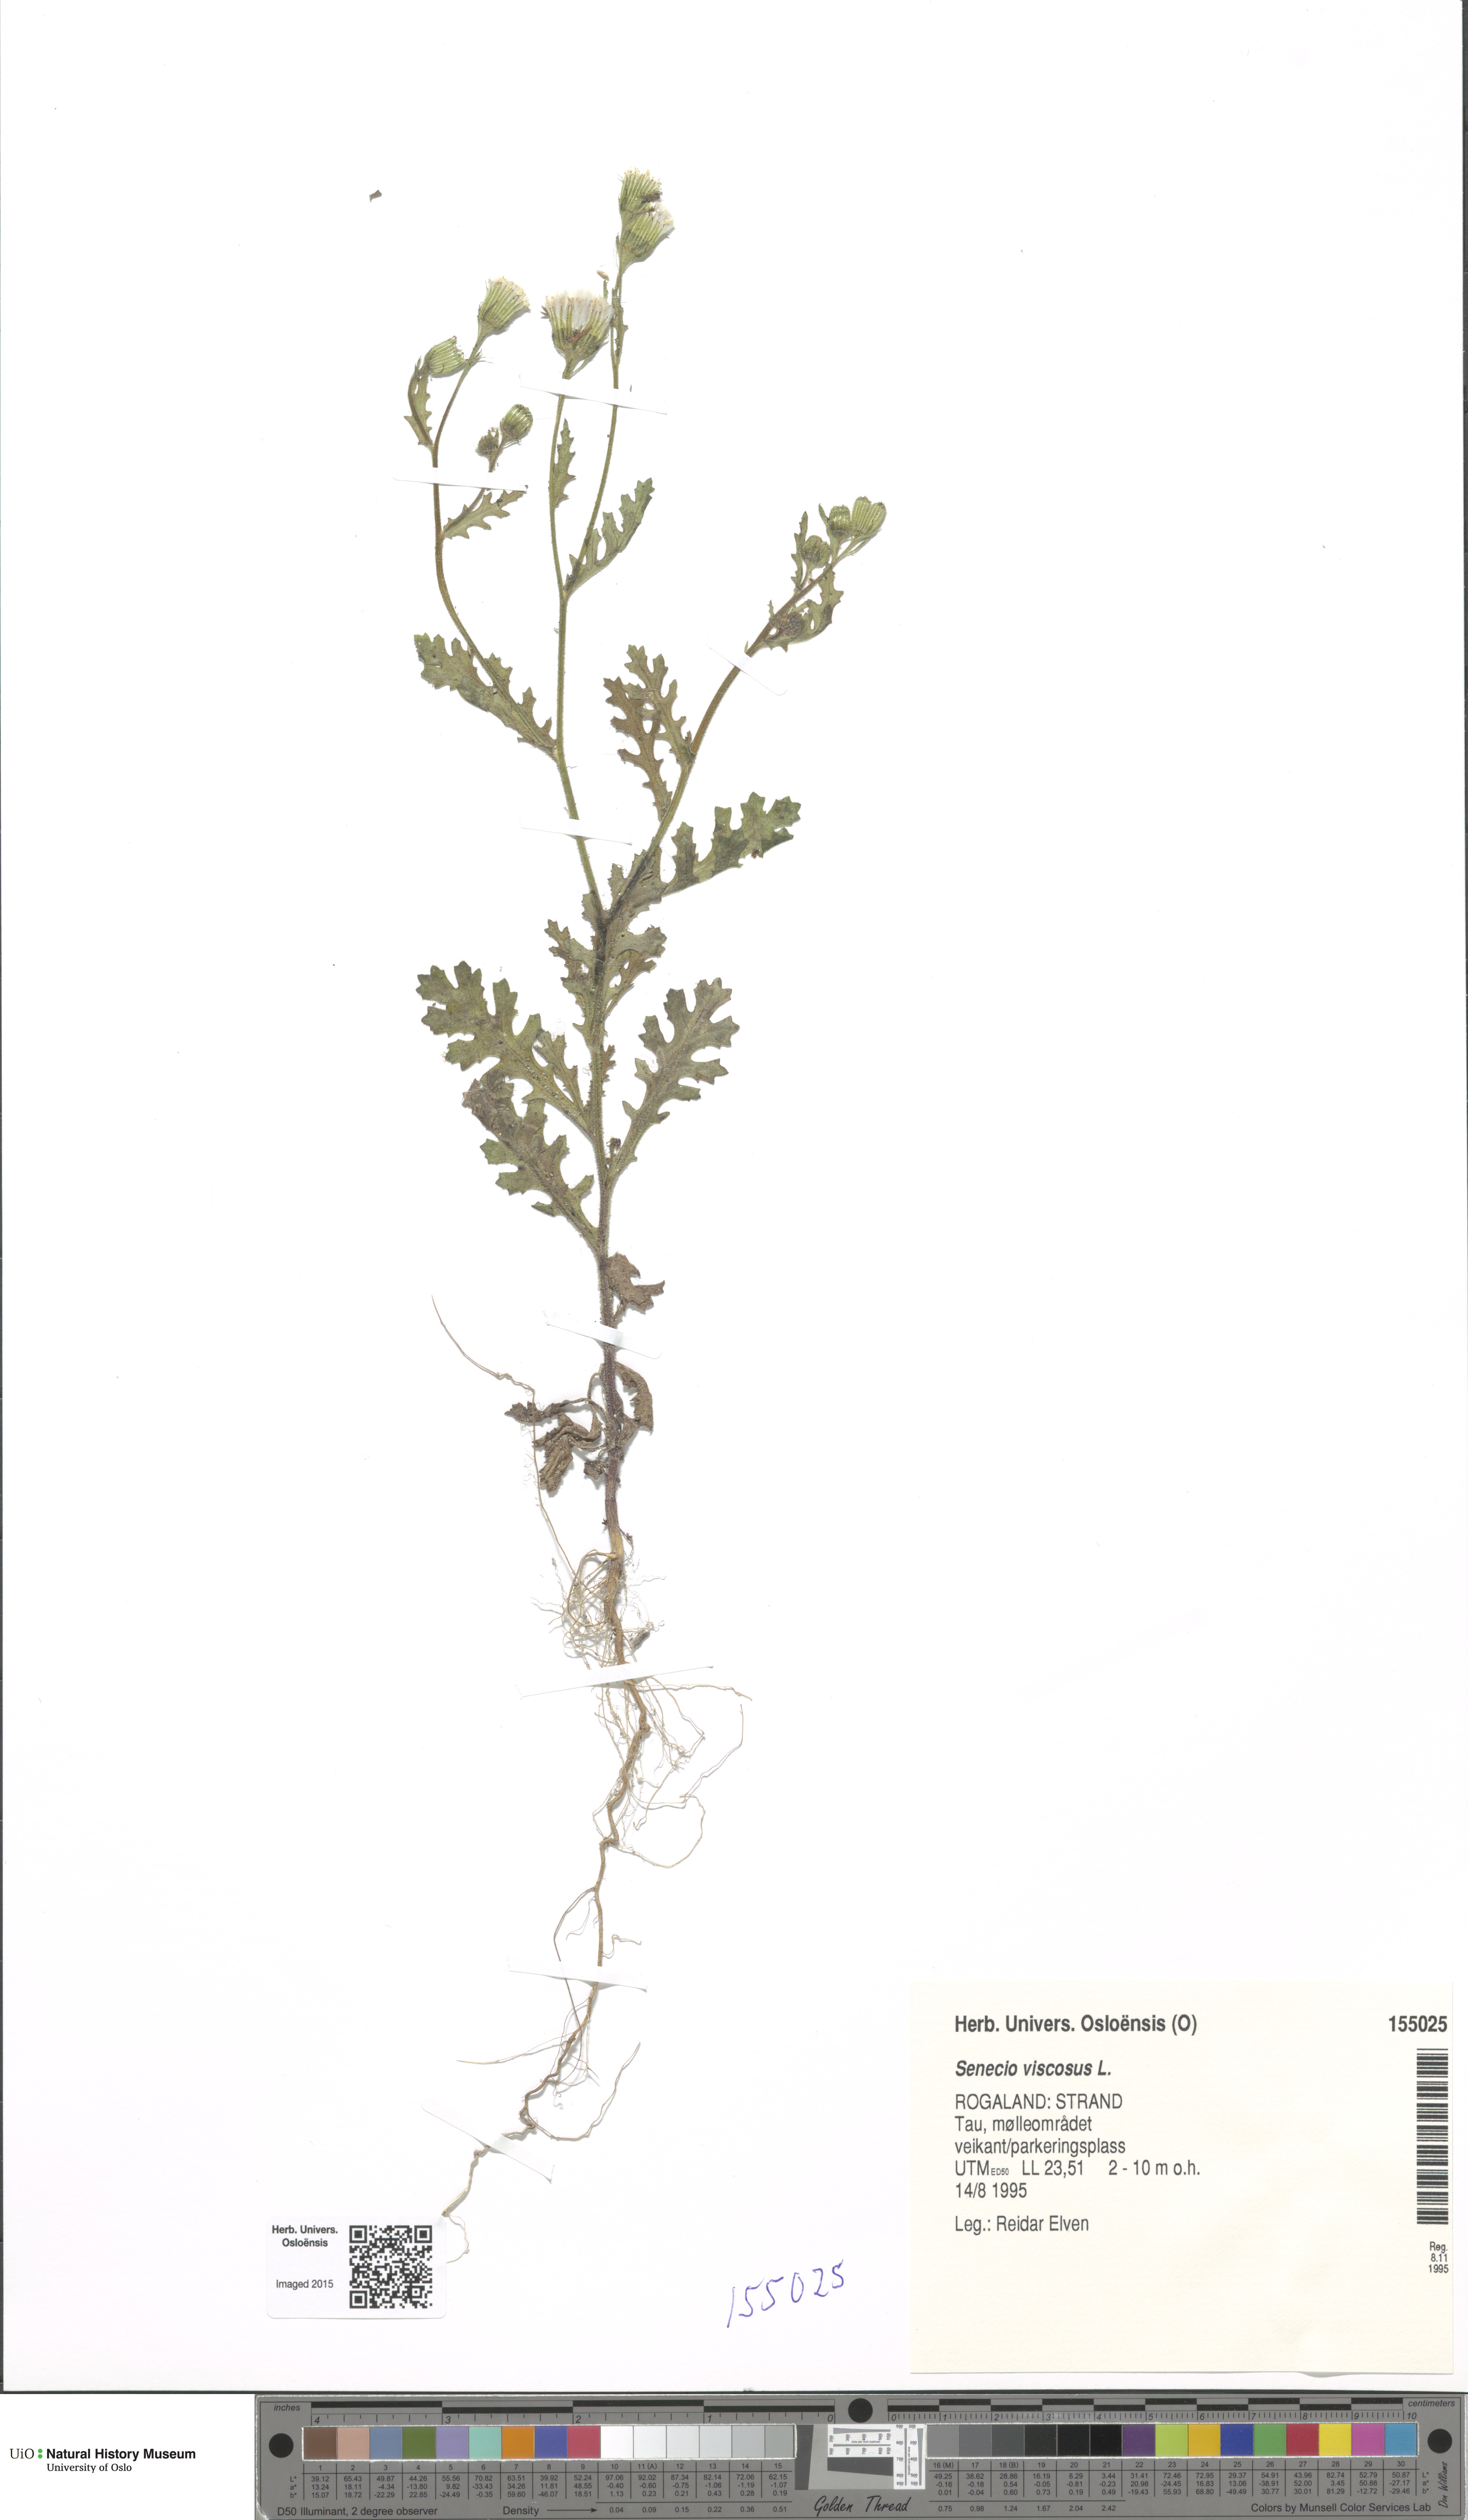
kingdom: Plantae
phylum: Tracheophyta
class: Magnoliopsida
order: Asterales
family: Asteraceae
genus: Senecio
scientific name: Senecio viscosus
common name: Sticky groundsel
